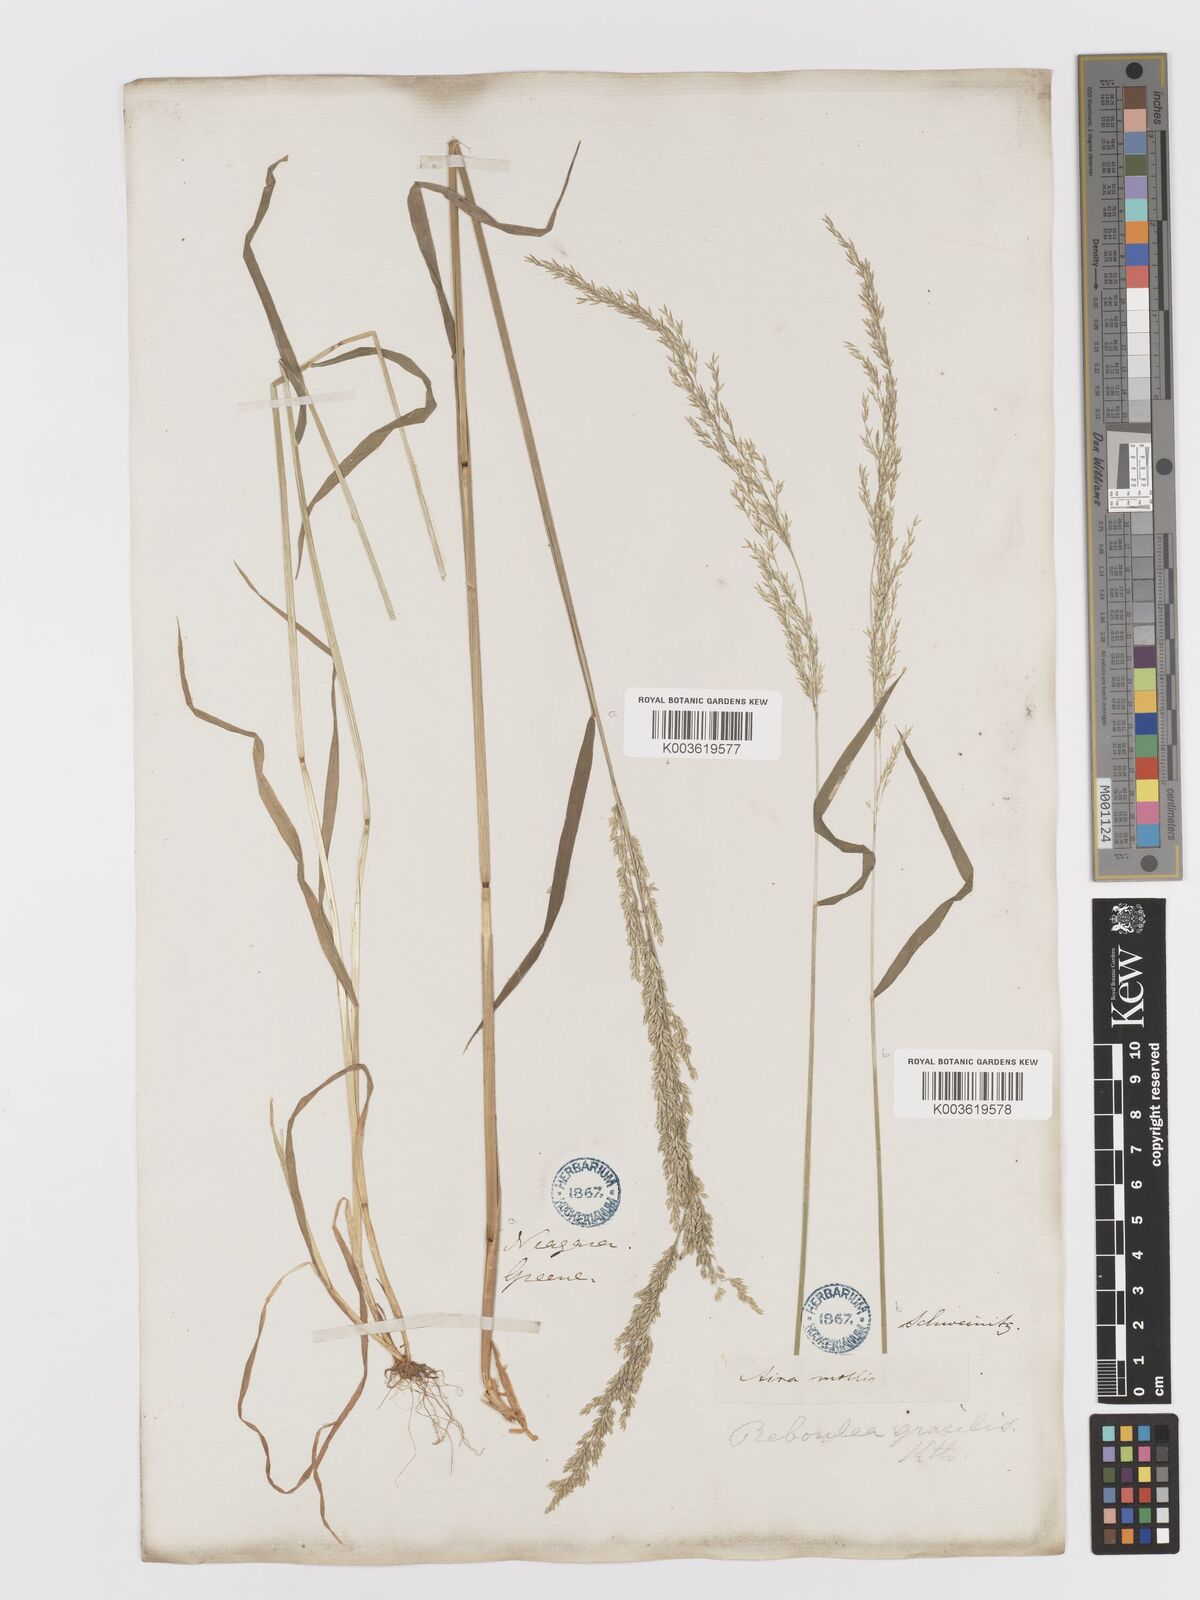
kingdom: Plantae
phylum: Tracheophyta
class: Liliopsida
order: Poales
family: Poaceae
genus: Sphenopholis
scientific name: Sphenopholis obtusata
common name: Prairie grass
